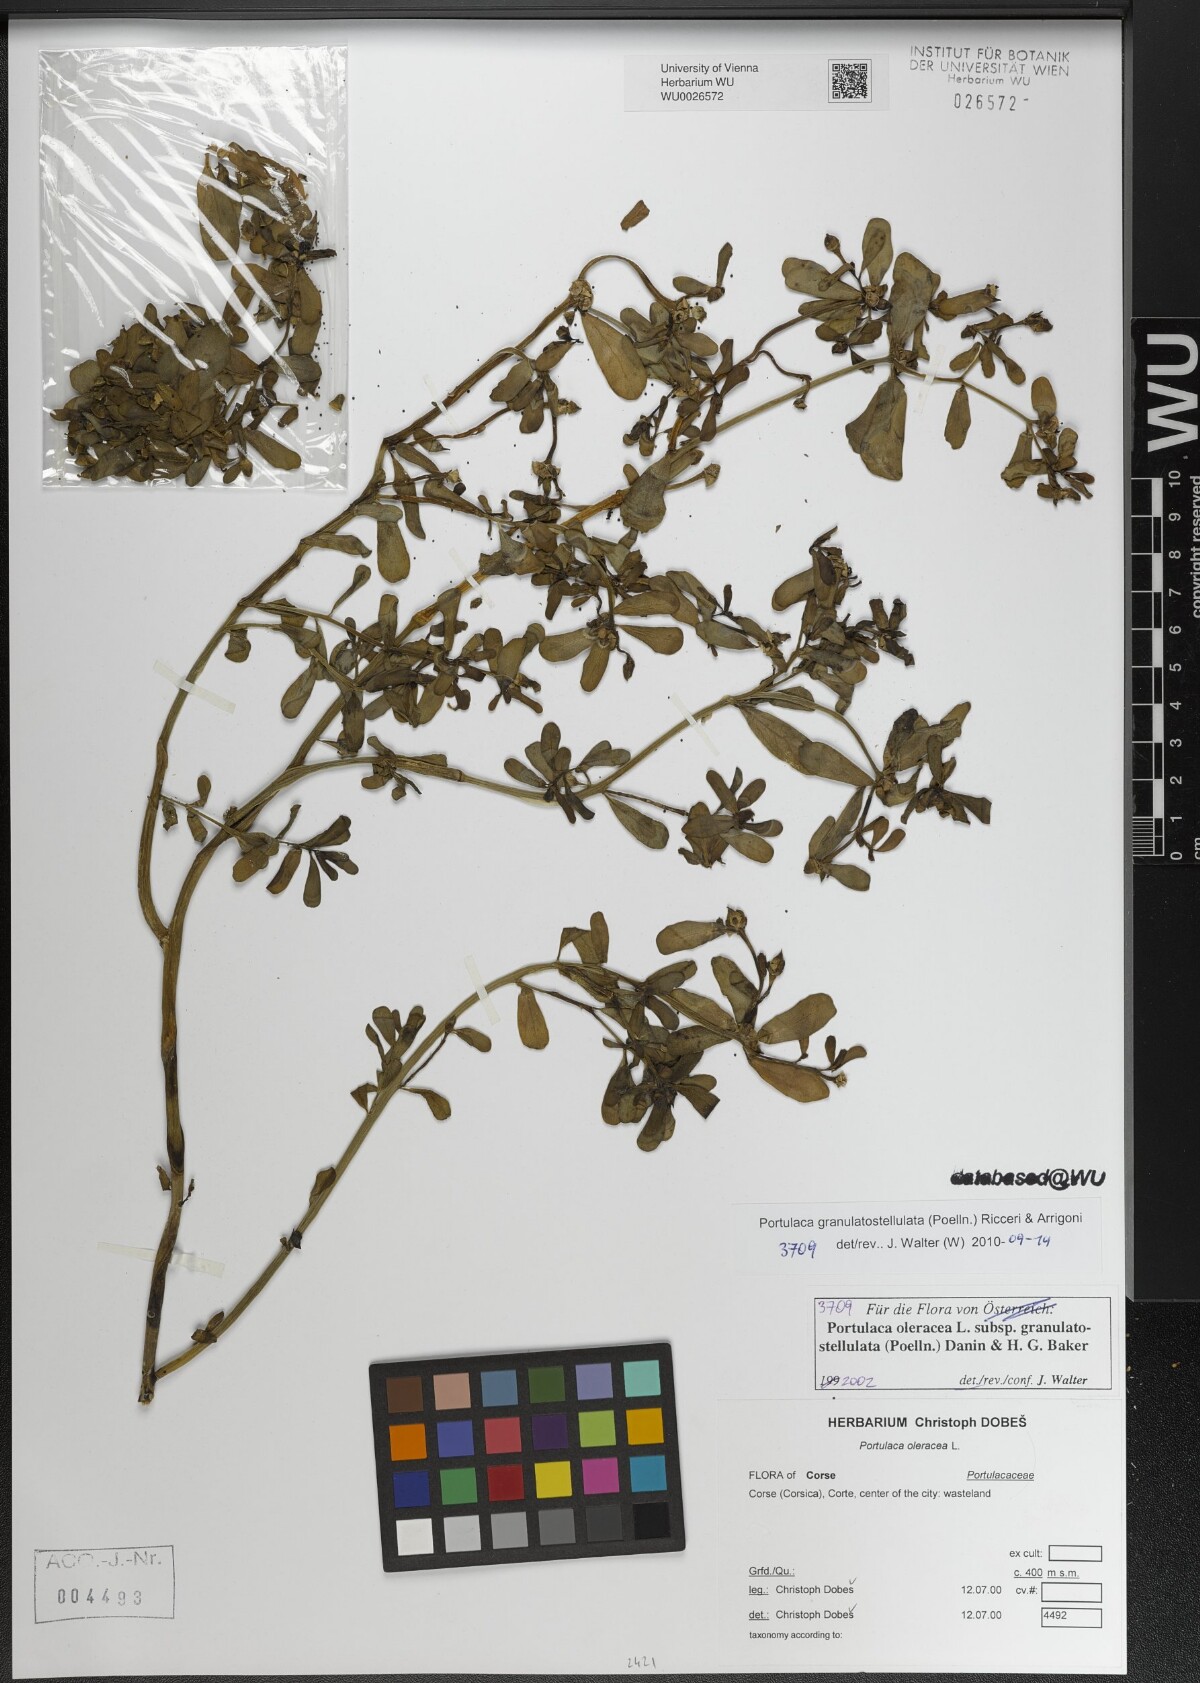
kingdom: Plantae
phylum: Tracheophyta
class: Magnoliopsida
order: Caryophyllales
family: Portulacaceae
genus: Portulaca
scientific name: Portulaca granulatostellulata
